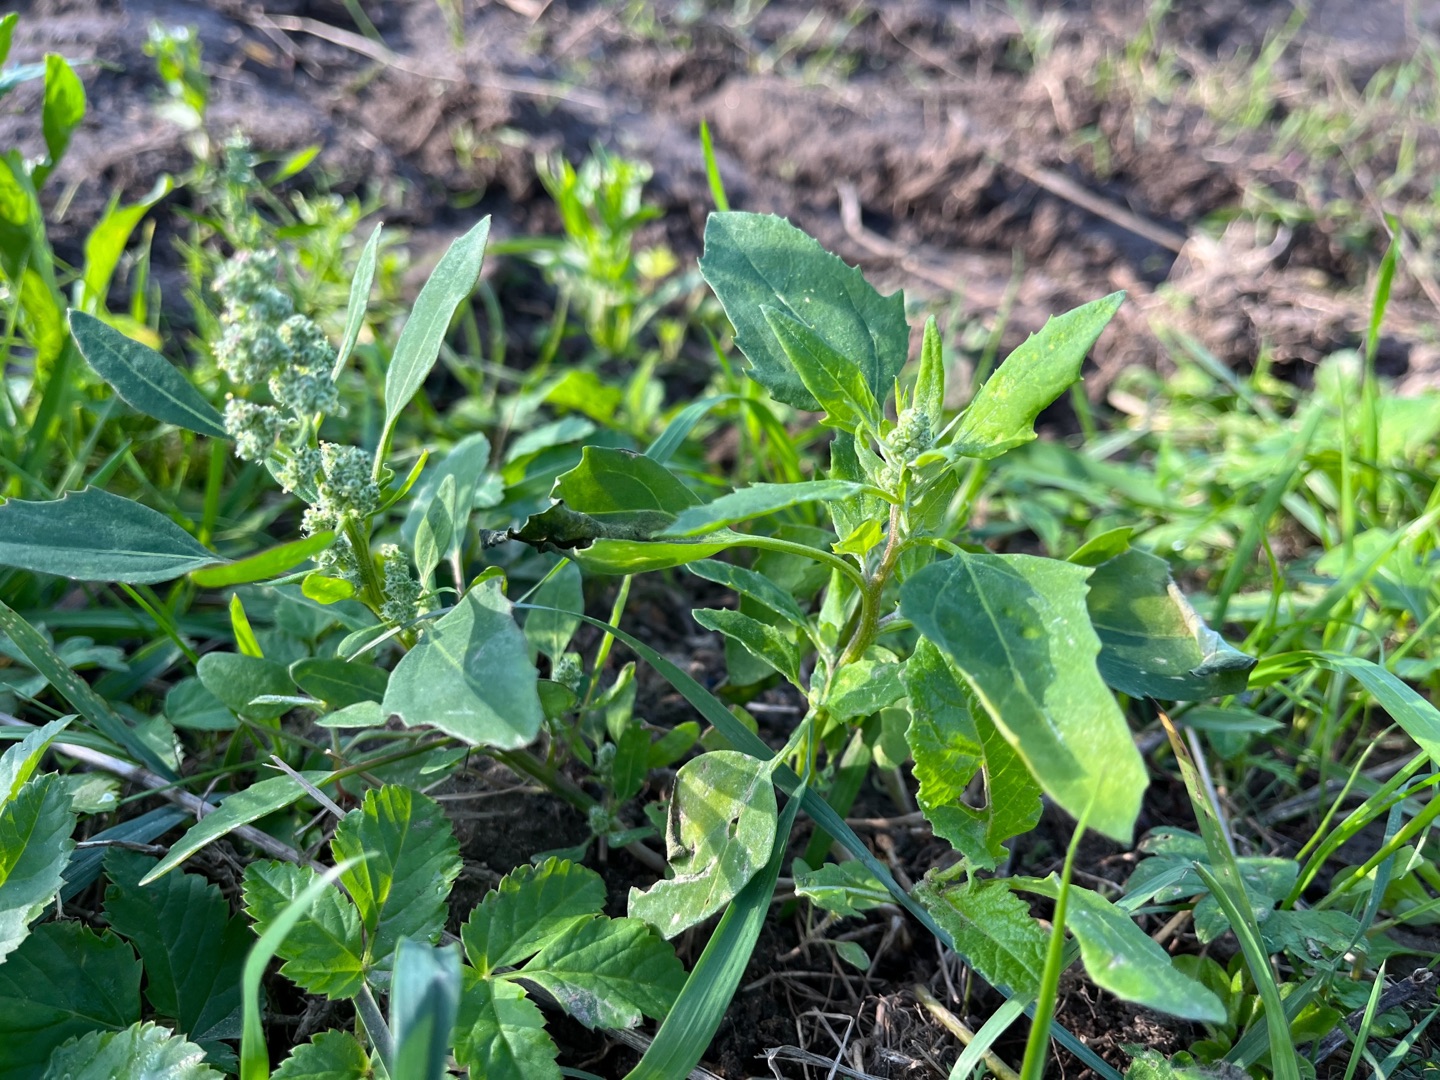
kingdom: Plantae
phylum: Tracheophyta
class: Magnoliopsida
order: Caryophyllales
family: Amaranthaceae
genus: Chenopodium
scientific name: Chenopodium album
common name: Hvidmelet gåsefod
